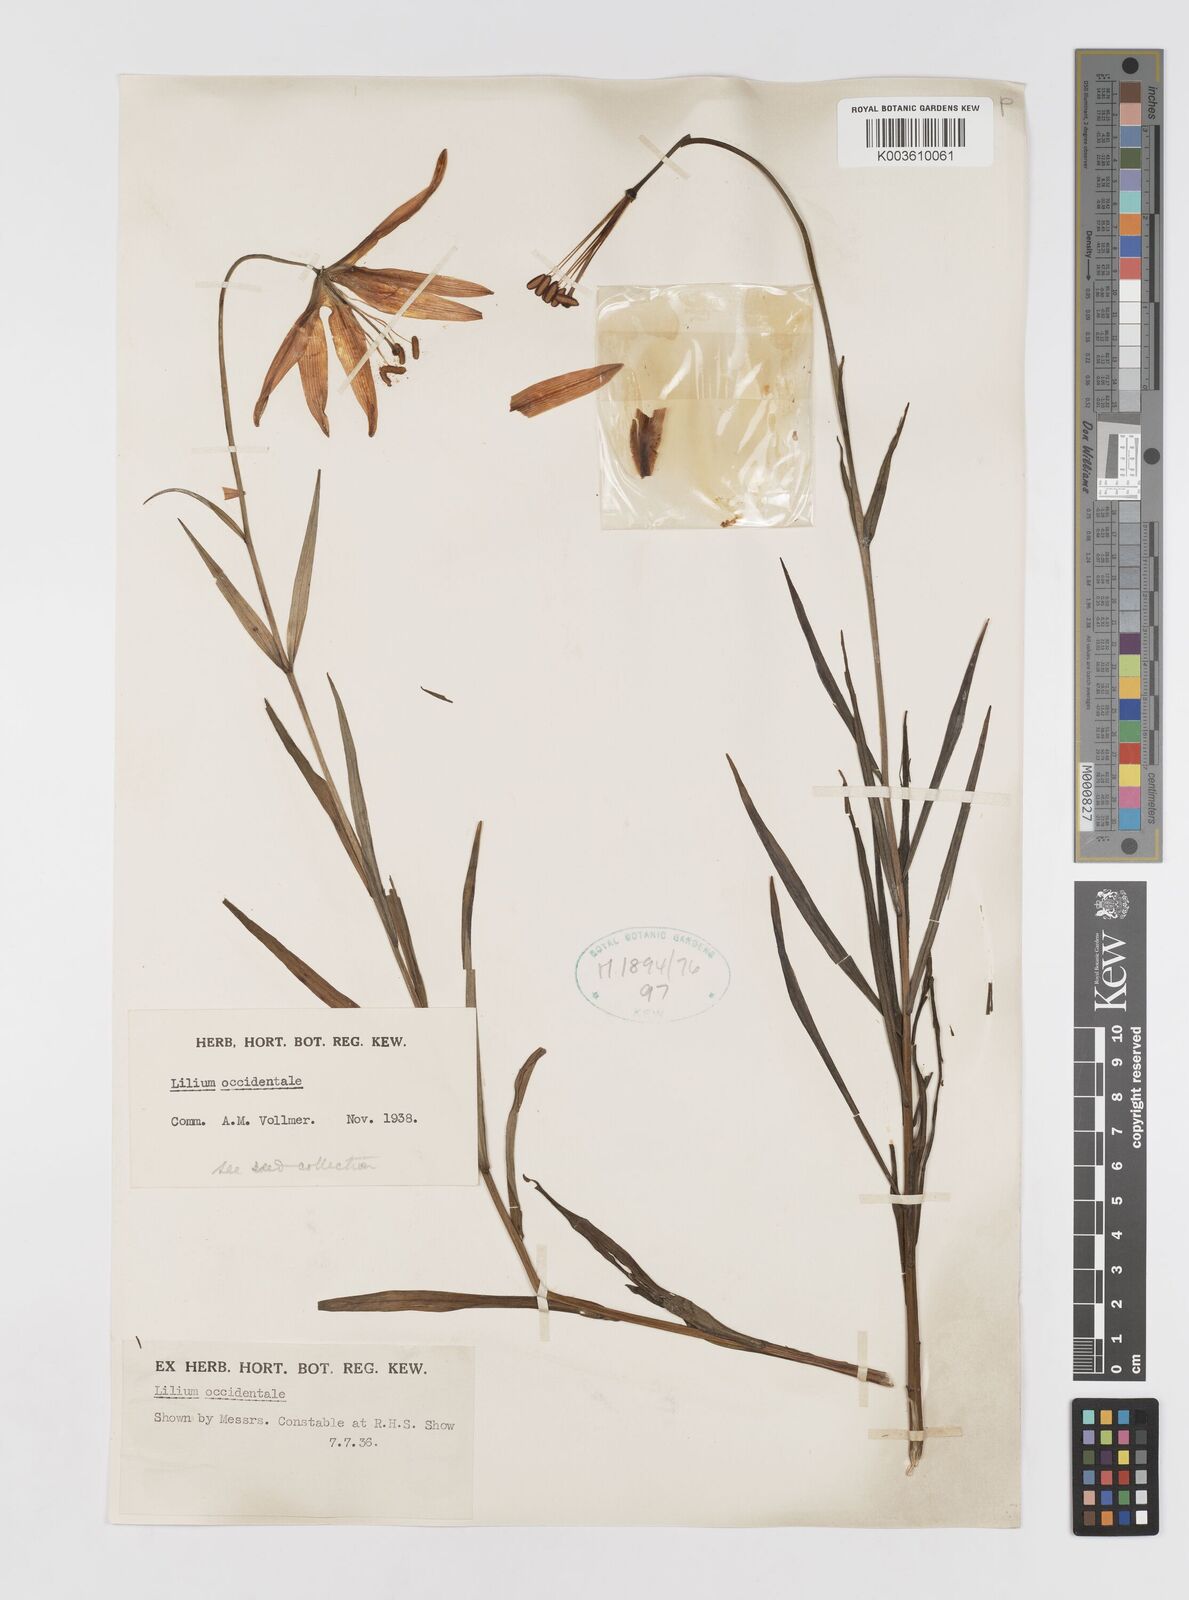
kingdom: Plantae
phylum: Tracheophyta
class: Liliopsida
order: Liliales
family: Liliaceae
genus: Lilium
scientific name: Lilium occidentale
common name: Eureka lily
